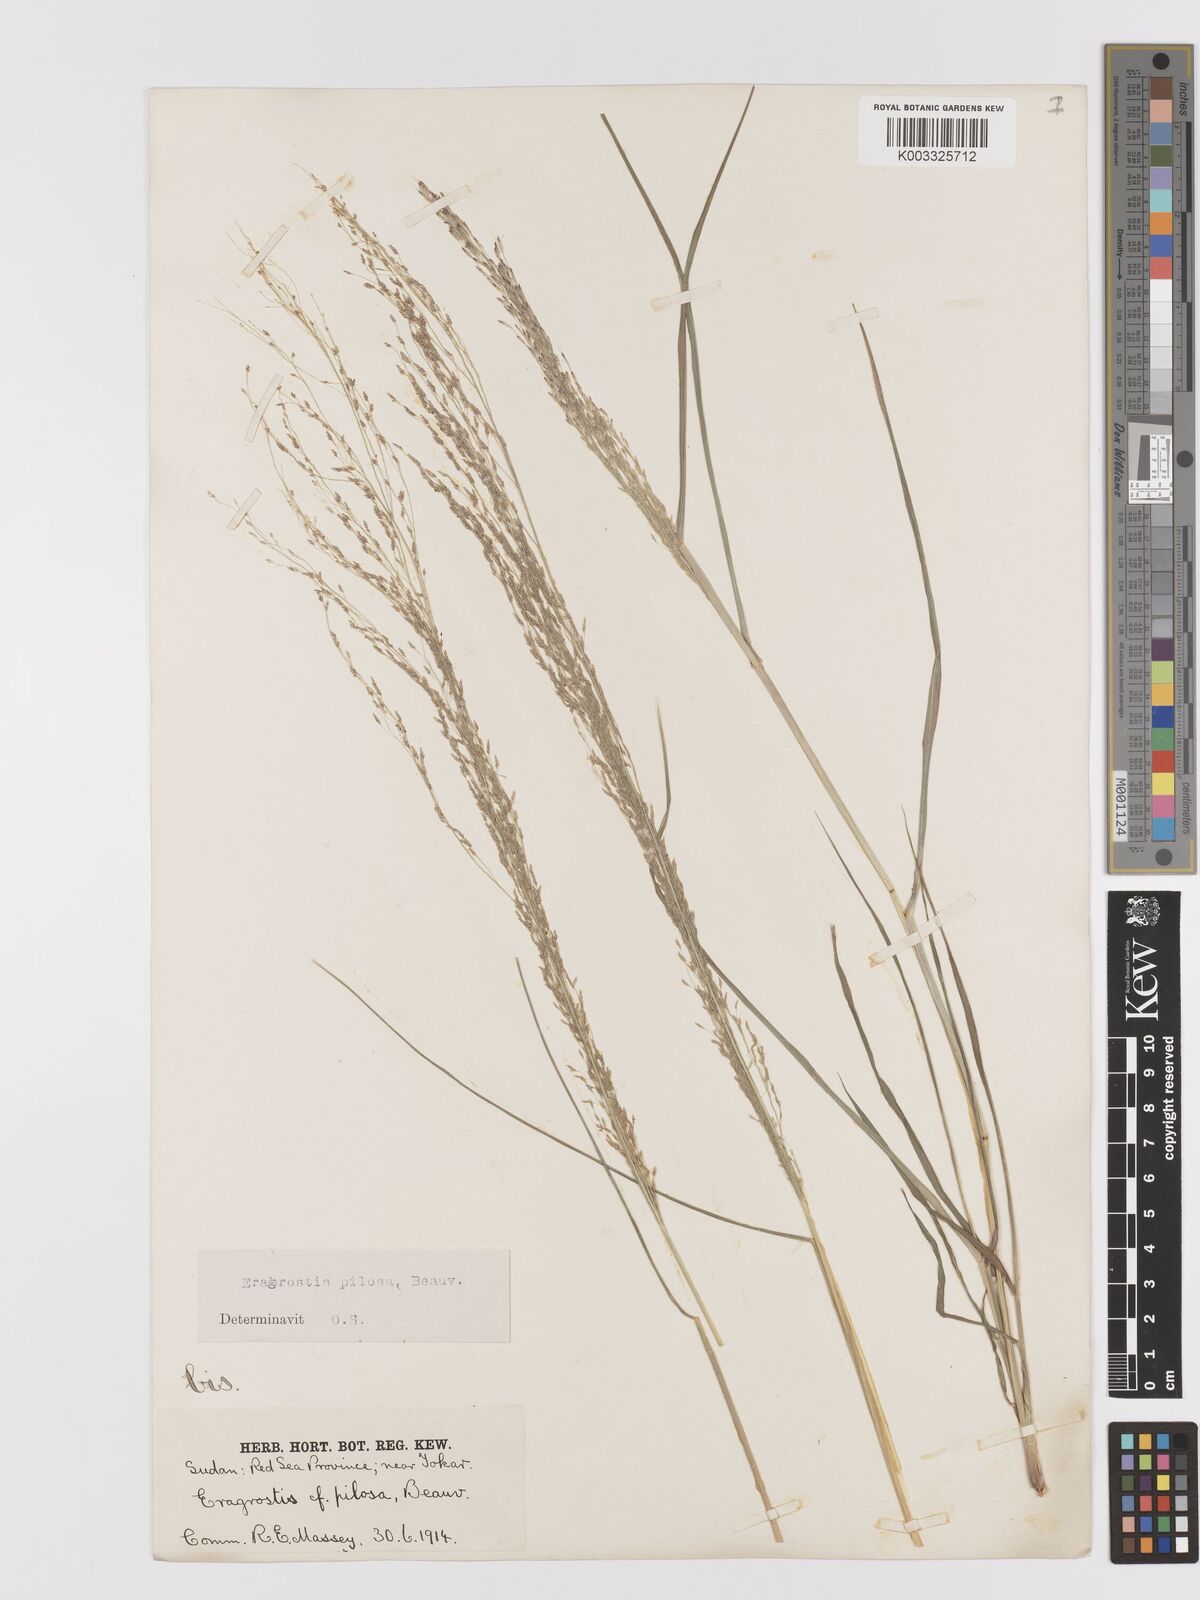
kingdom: Plantae
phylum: Tracheophyta
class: Liliopsida
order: Poales
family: Poaceae
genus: Eragrostis
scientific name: Eragrostis pilosa
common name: Indian lovegrass
